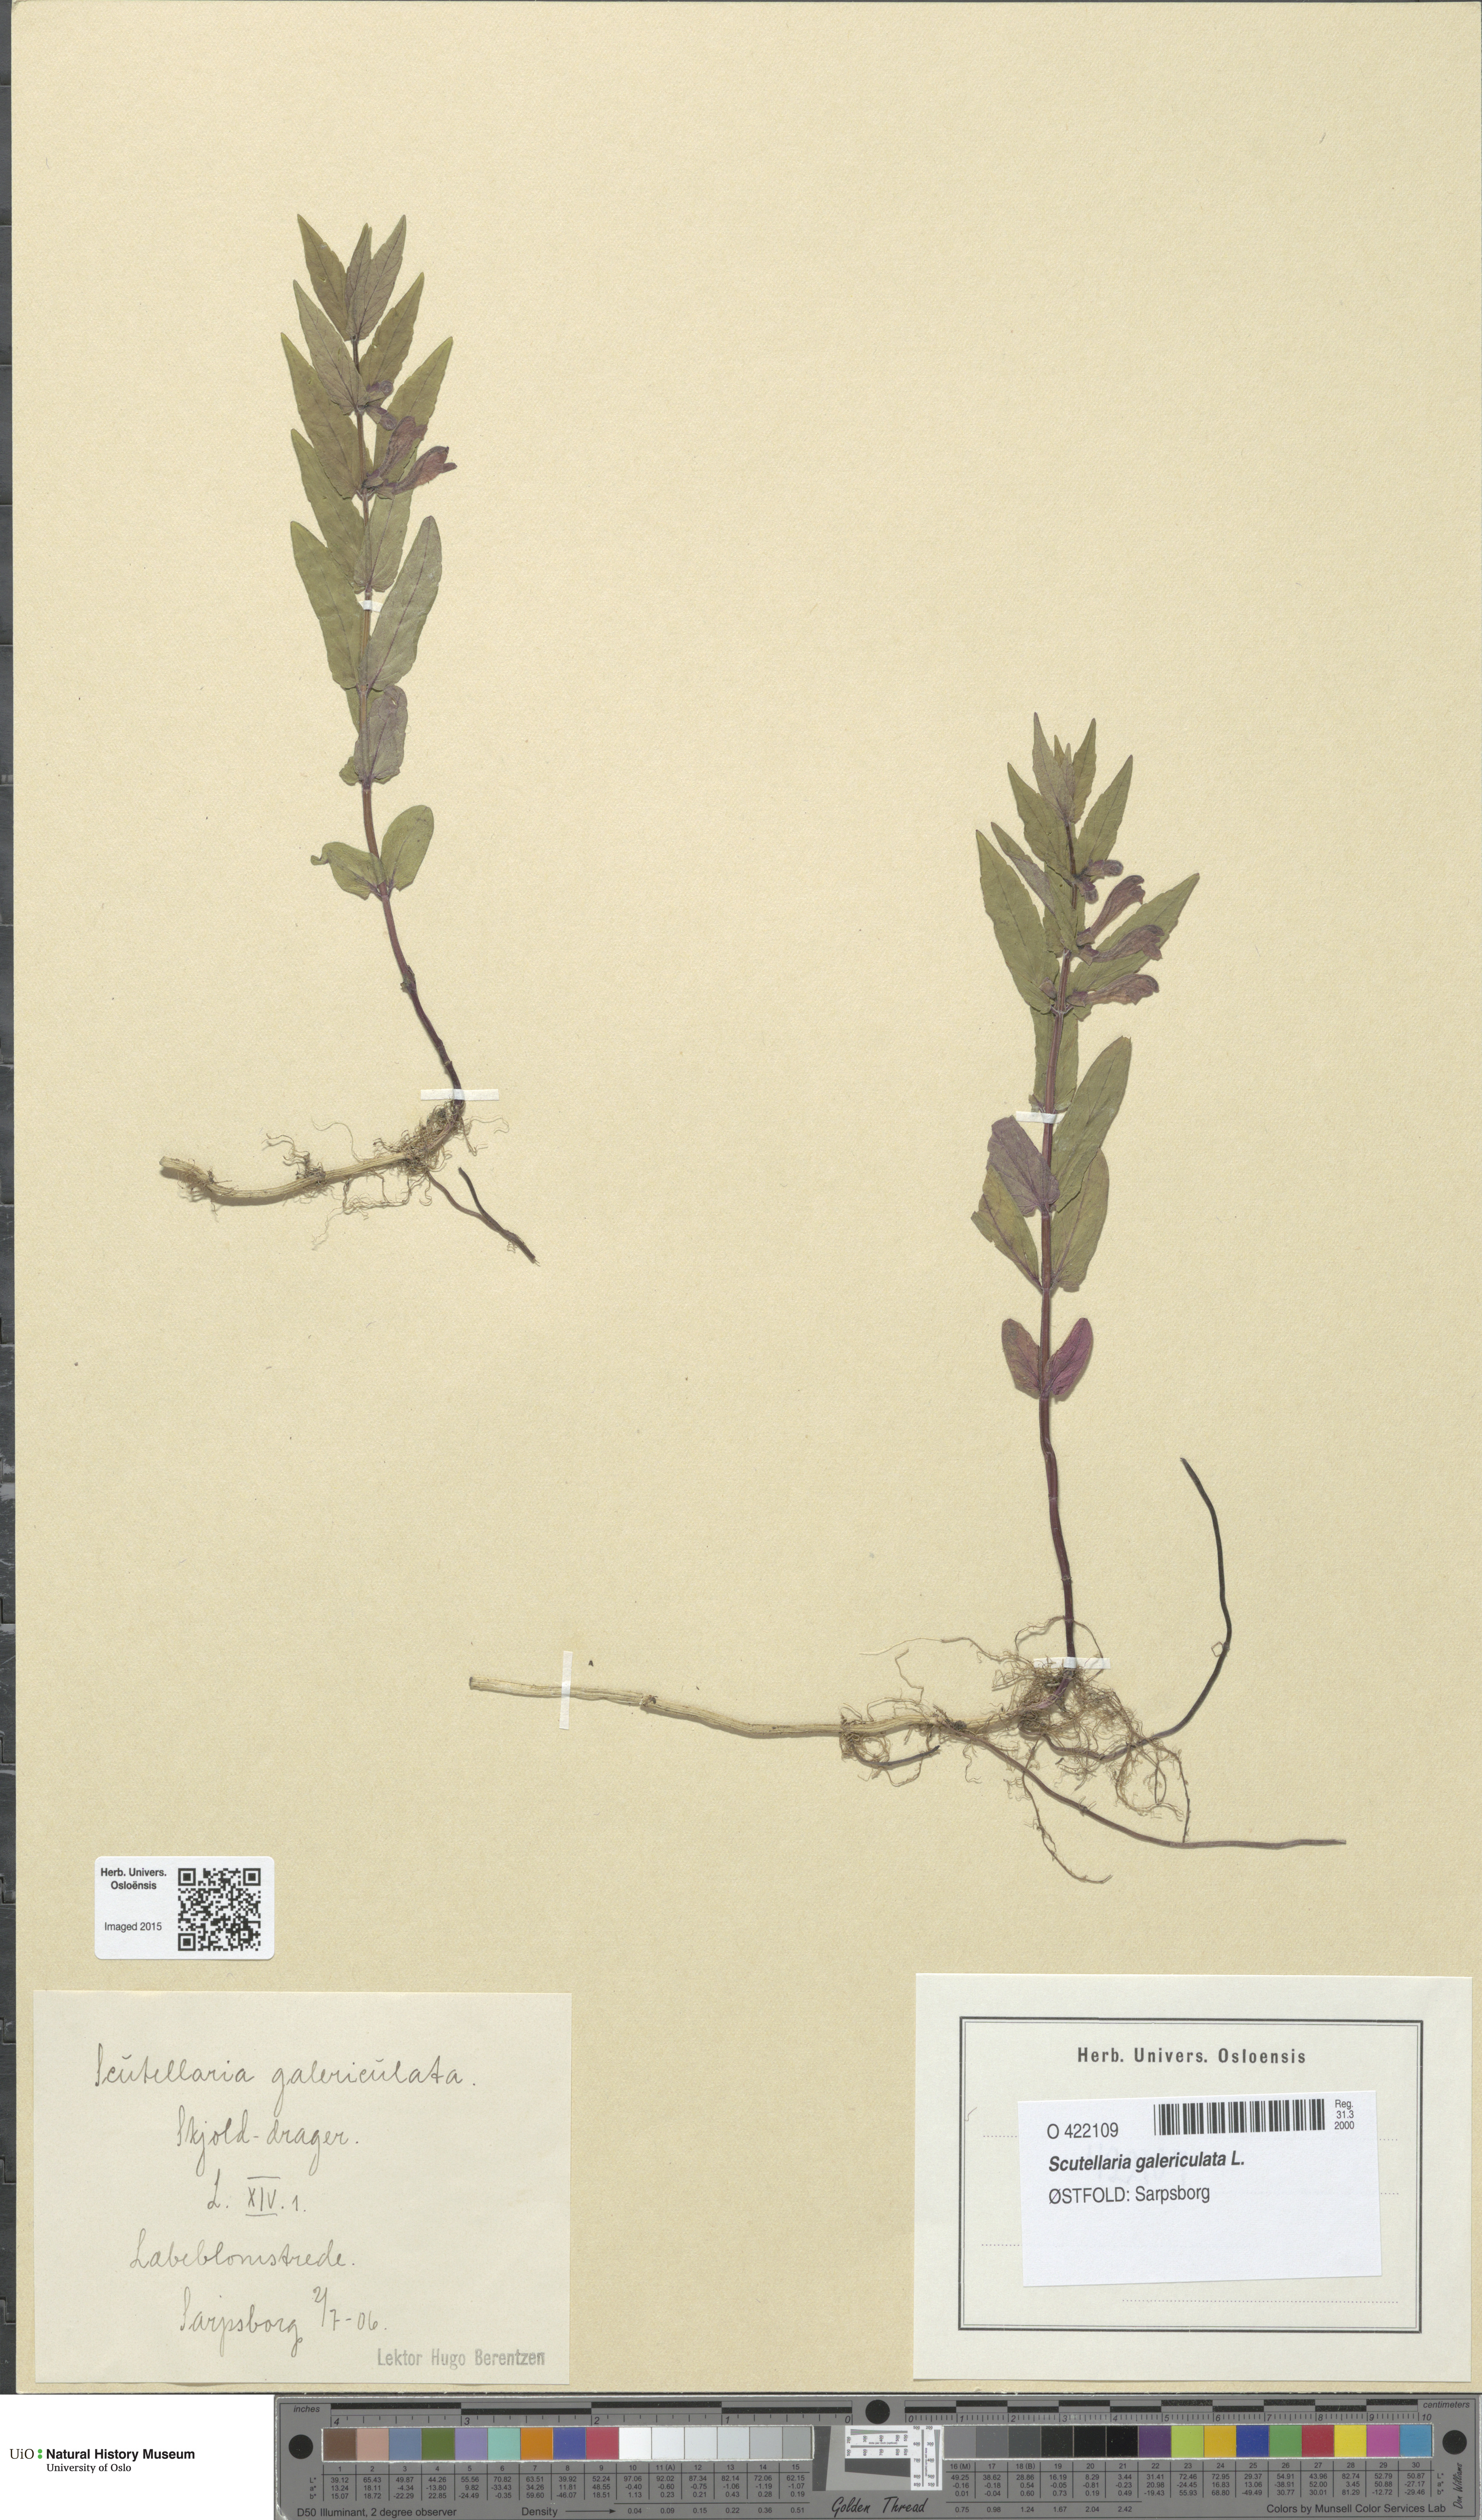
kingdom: Plantae
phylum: Tracheophyta
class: Magnoliopsida
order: Lamiales
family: Lamiaceae
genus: Scutellaria
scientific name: Scutellaria galericulata
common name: Skullcap
